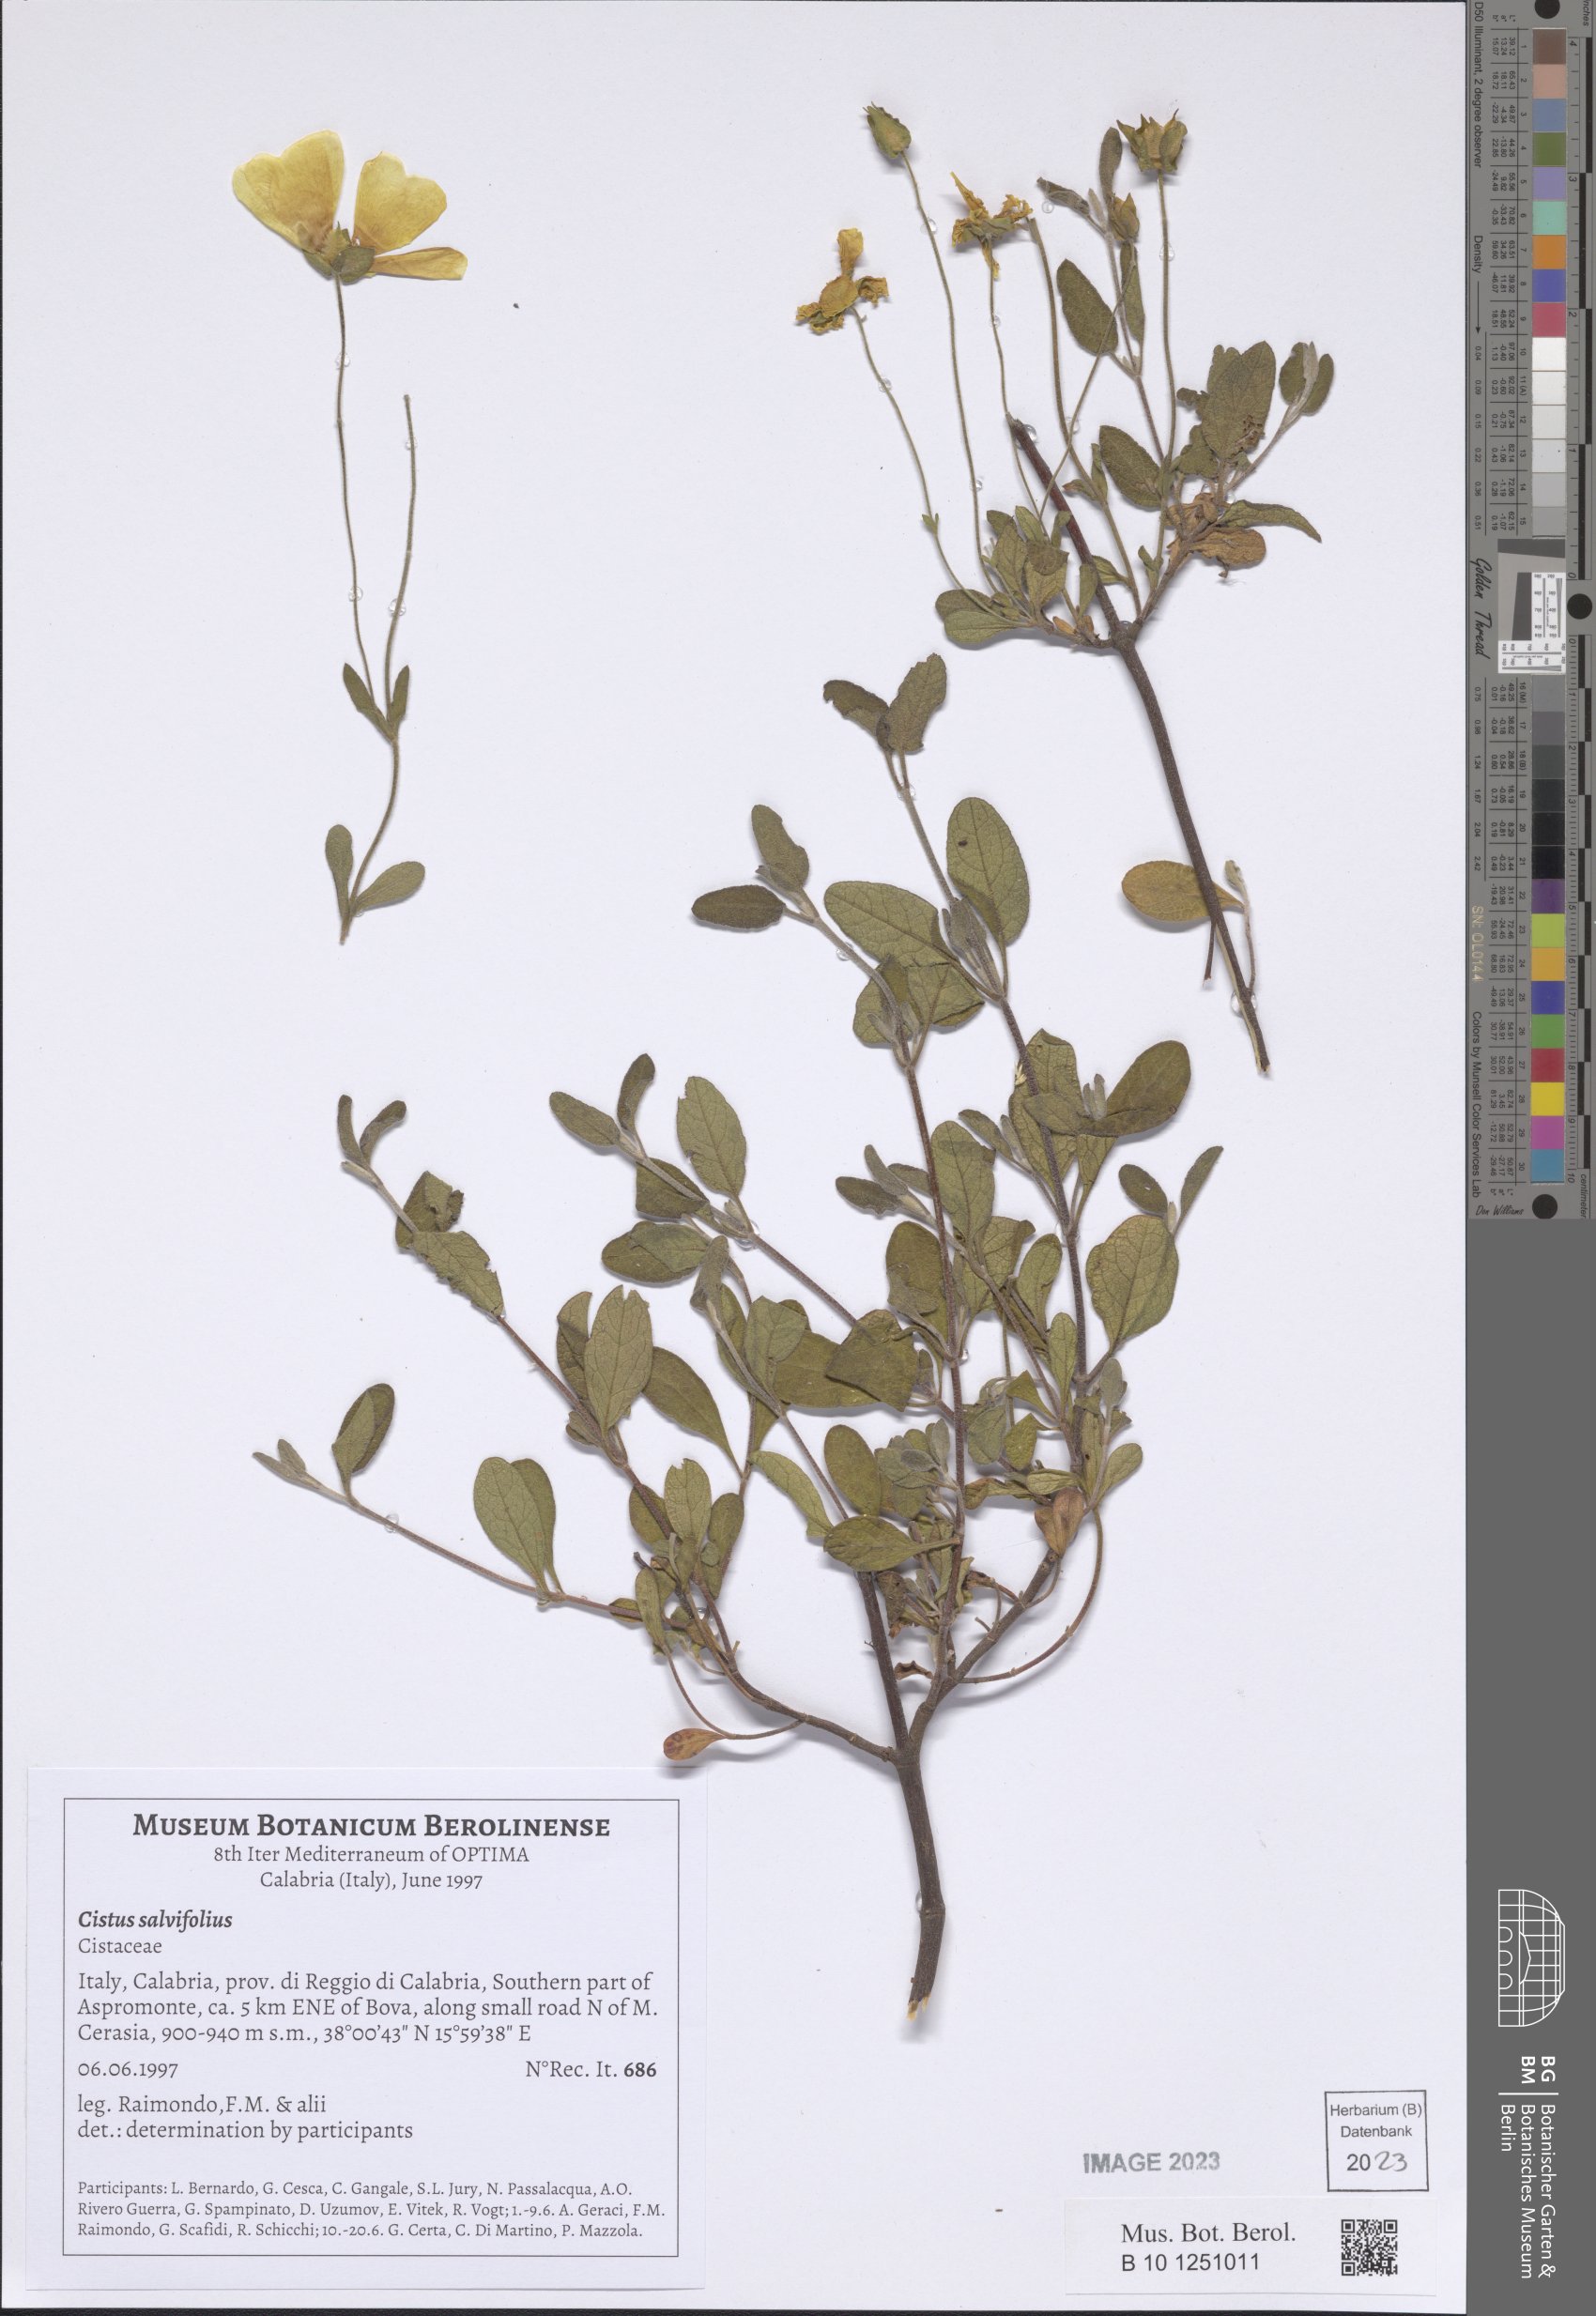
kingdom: Plantae
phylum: Tracheophyta
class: Magnoliopsida
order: Malvales
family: Cistaceae
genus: Cistus
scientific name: Cistus salviifolius
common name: Salvia cistus
